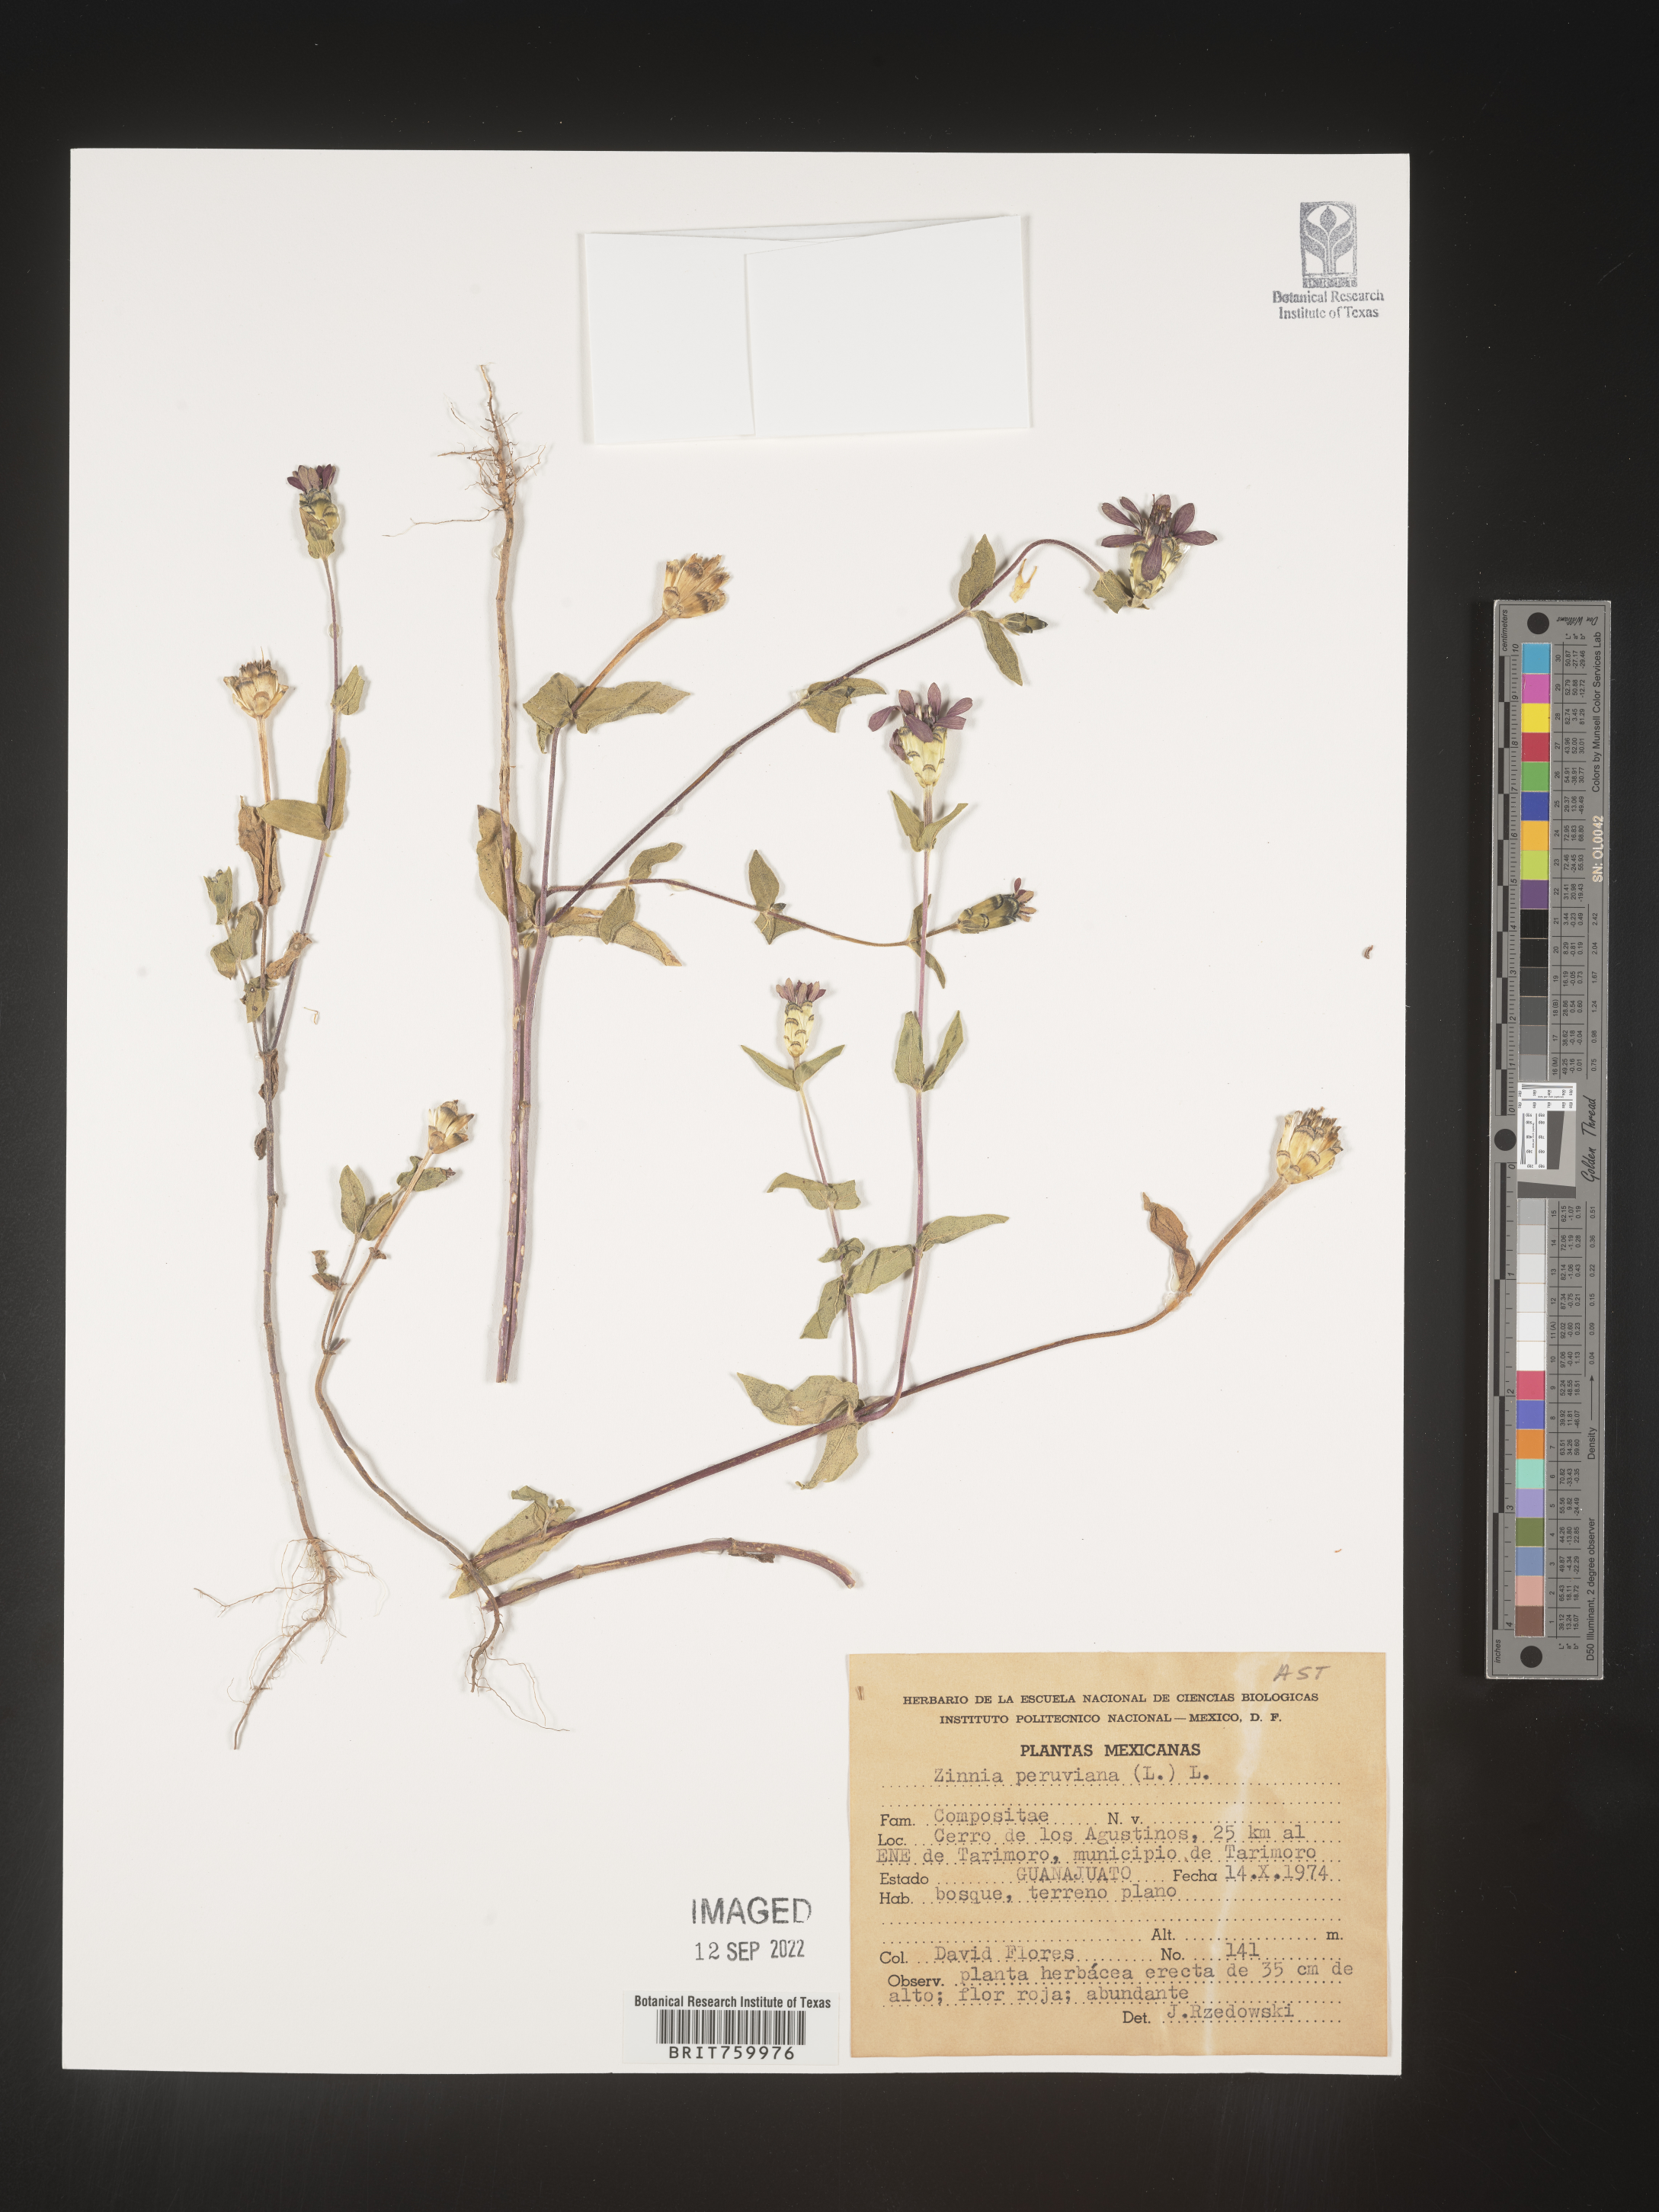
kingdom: Plantae
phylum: Tracheophyta
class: Magnoliopsida
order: Asterales
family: Asteraceae
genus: Zinnia
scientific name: Zinnia
